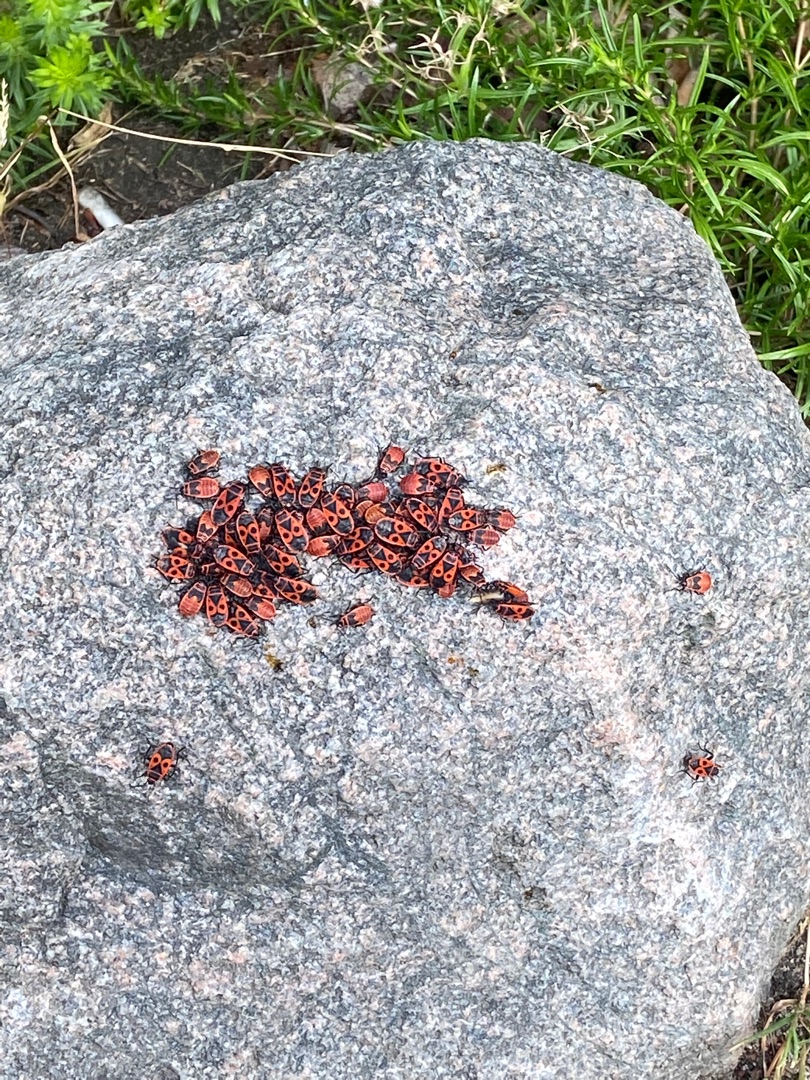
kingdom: Animalia
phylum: Arthropoda
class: Insecta
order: Hemiptera
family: Pyrrhocoridae
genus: Pyrrhocoris
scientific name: Pyrrhocoris apterus
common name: Ildtæge
